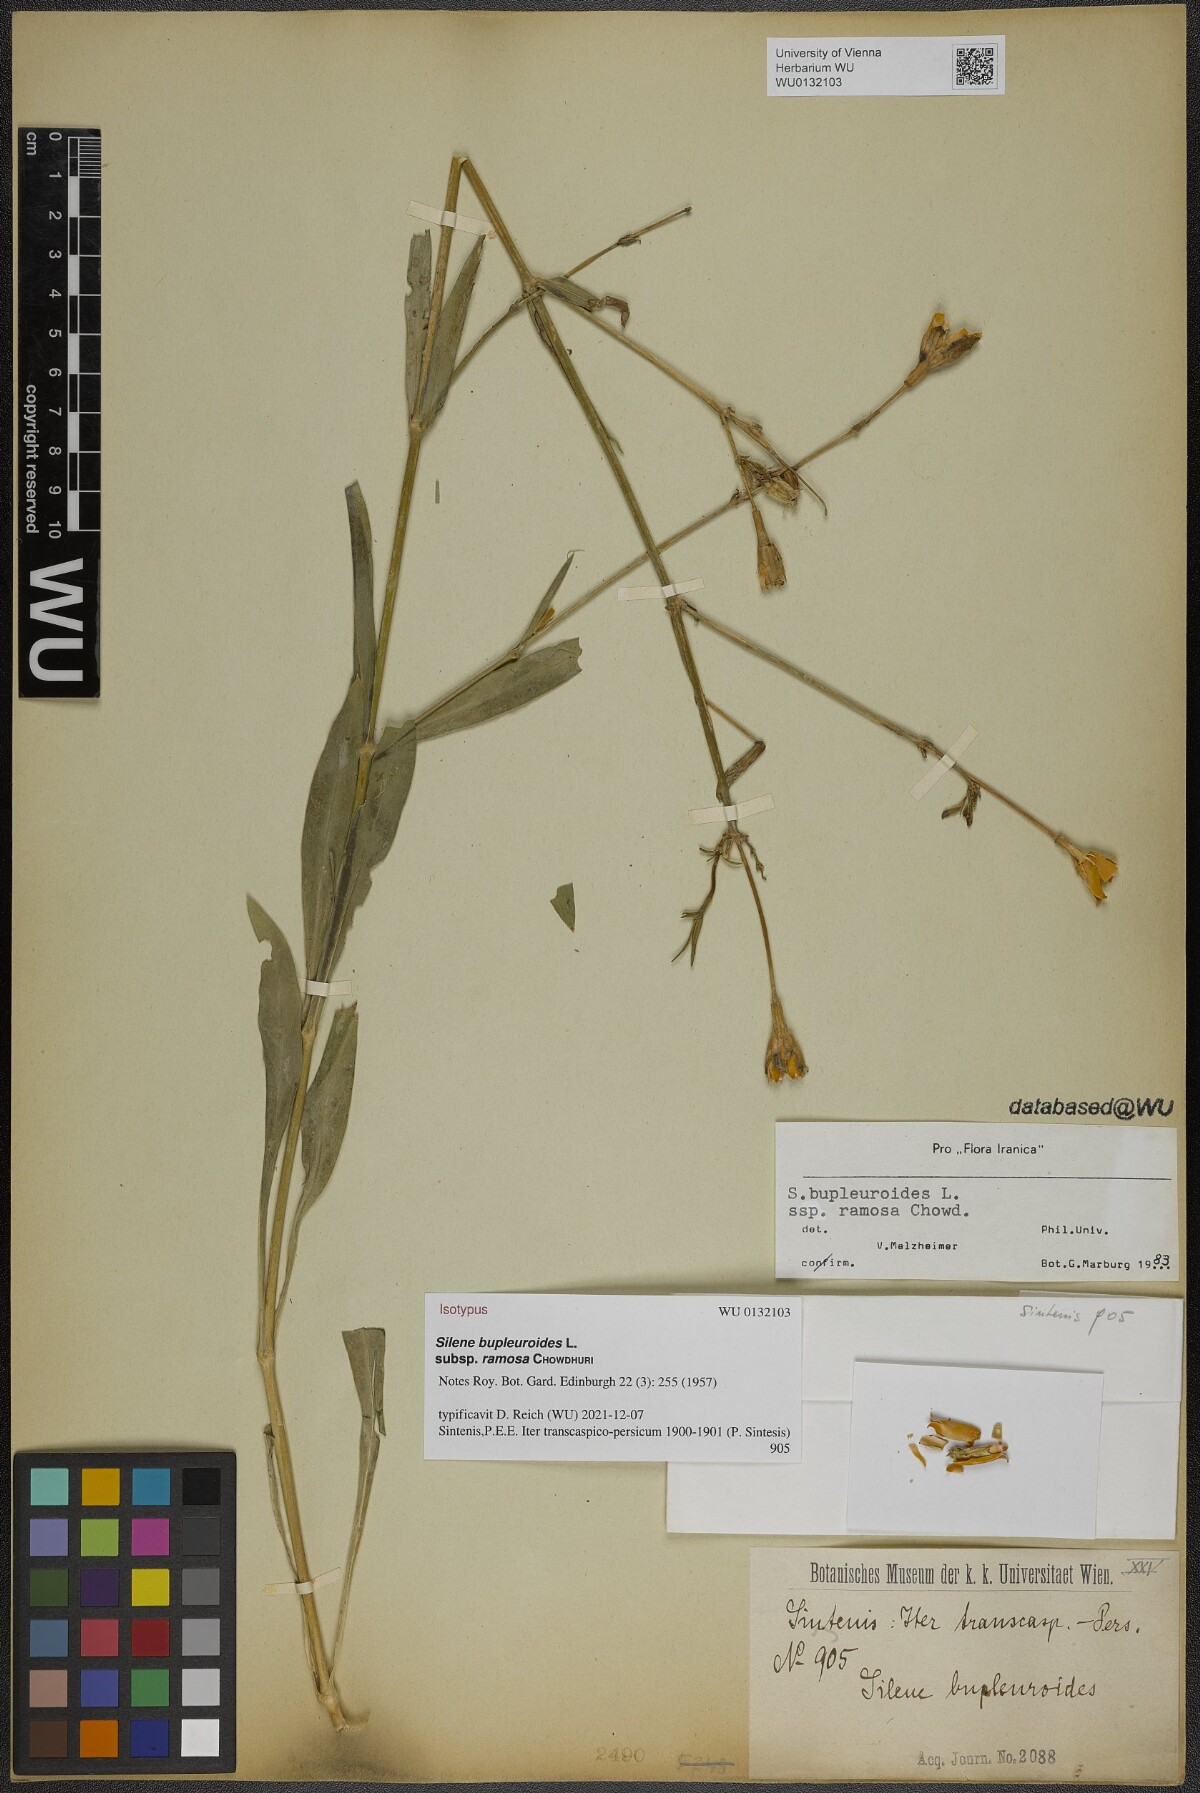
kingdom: Plantae
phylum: Tracheophyta
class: Magnoliopsida
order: Caryophyllales
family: Caryophyllaceae
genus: Silene
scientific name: Silene bupleuroides
